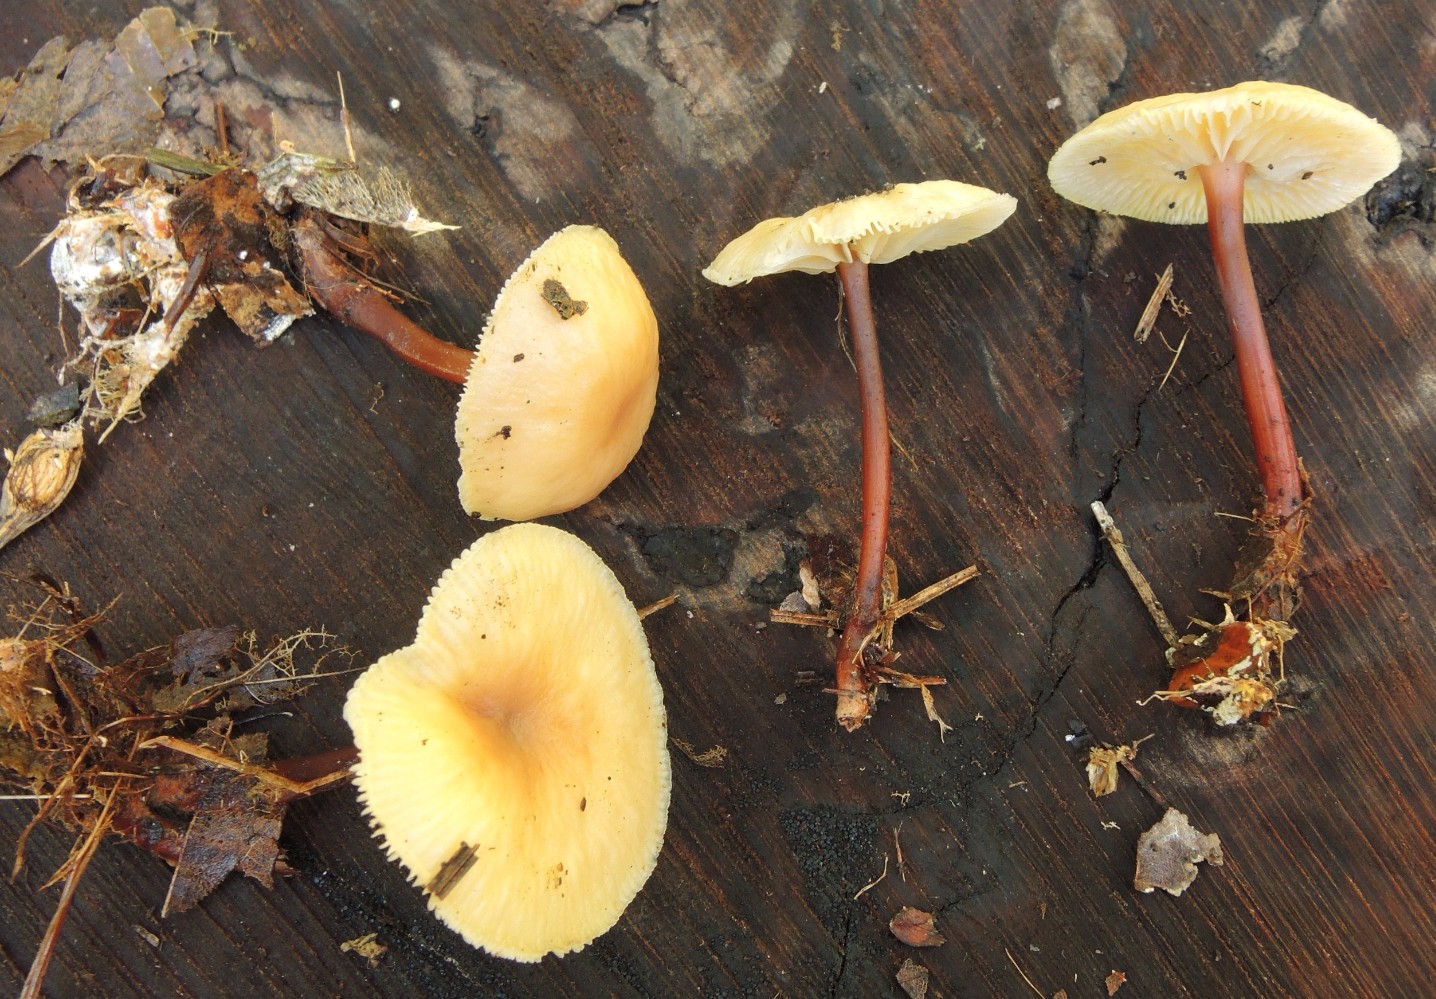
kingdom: Fungi
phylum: Basidiomycota
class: Agaricomycetes
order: Agaricales
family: Omphalotaceae
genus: Gymnopus
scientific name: Gymnopus erythropus
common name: rødstokket fladhat
